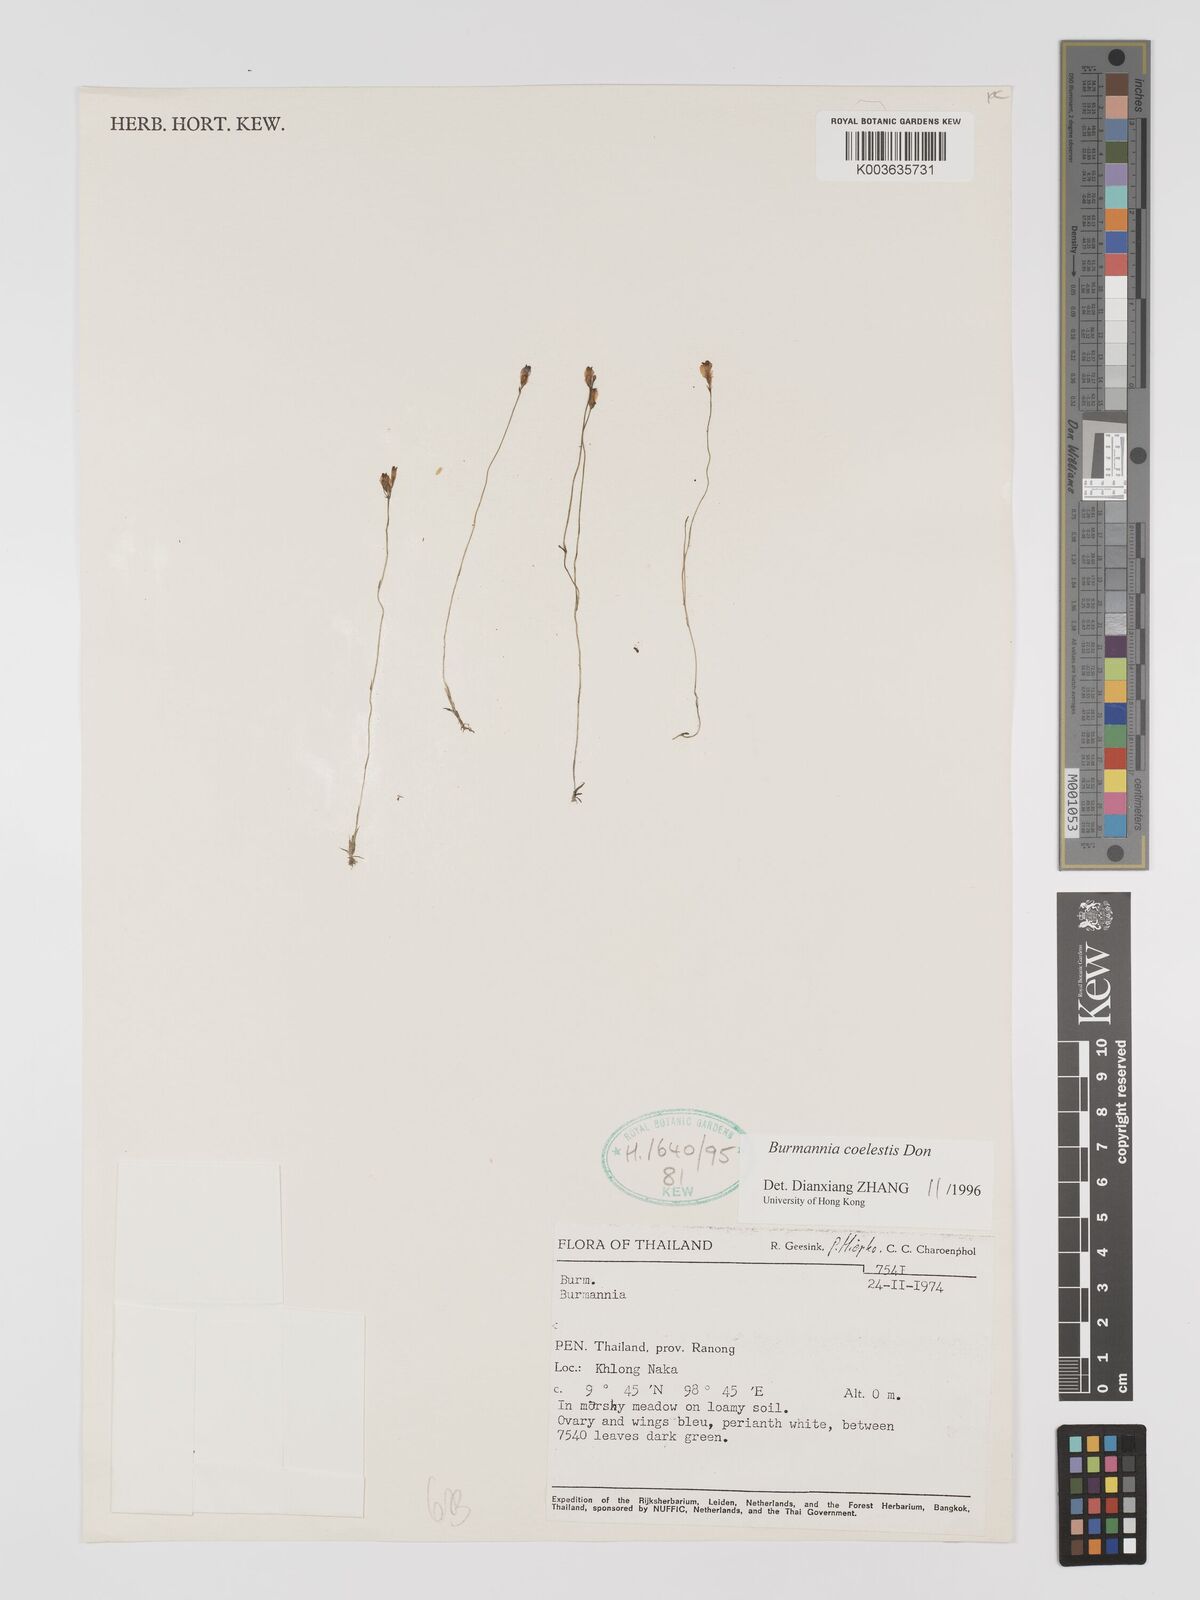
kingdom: Plantae
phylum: Tracheophyta
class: Liliopsida
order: Dioscoreales
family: Burmanniaceae
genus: Burmannia
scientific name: Burmannia coelestis
